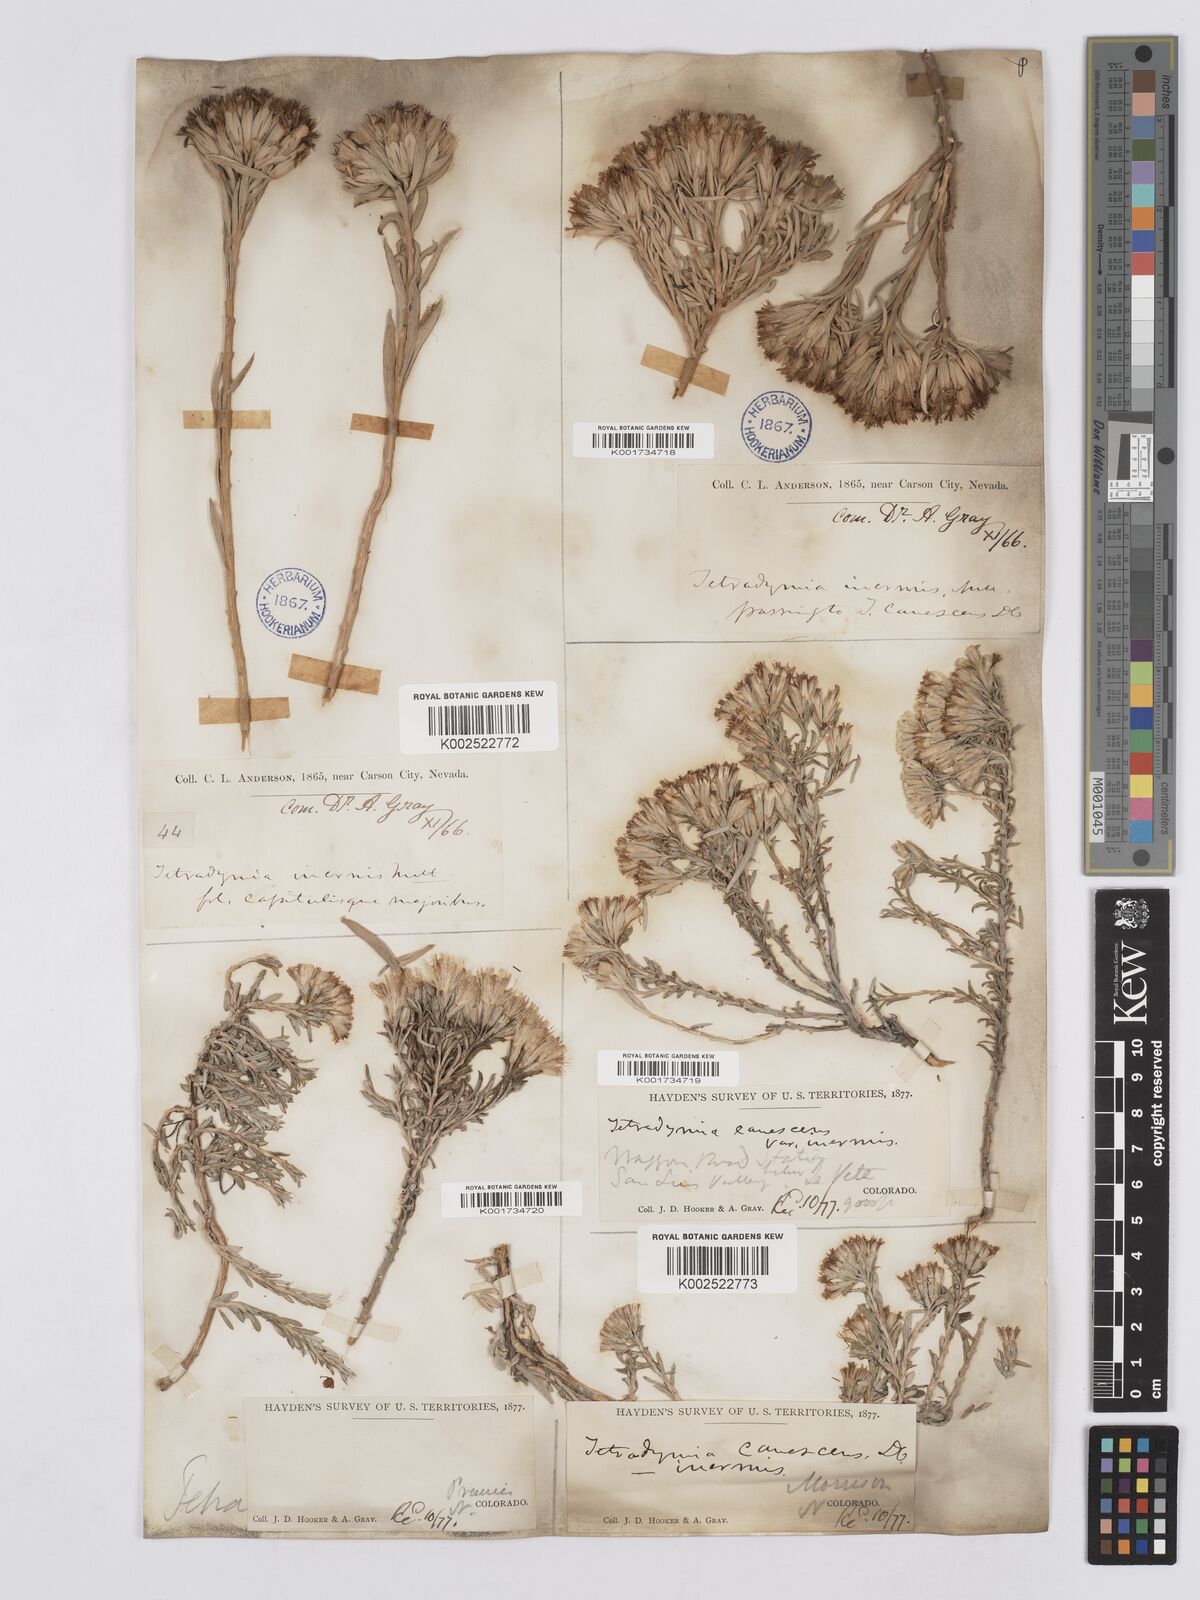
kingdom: Plantae
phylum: Tracheophyta
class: Magnoliopsida
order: Asterales
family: Asteraceae
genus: Tetradymia
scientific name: Tetradymia canescens
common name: Spineless horsebrush
